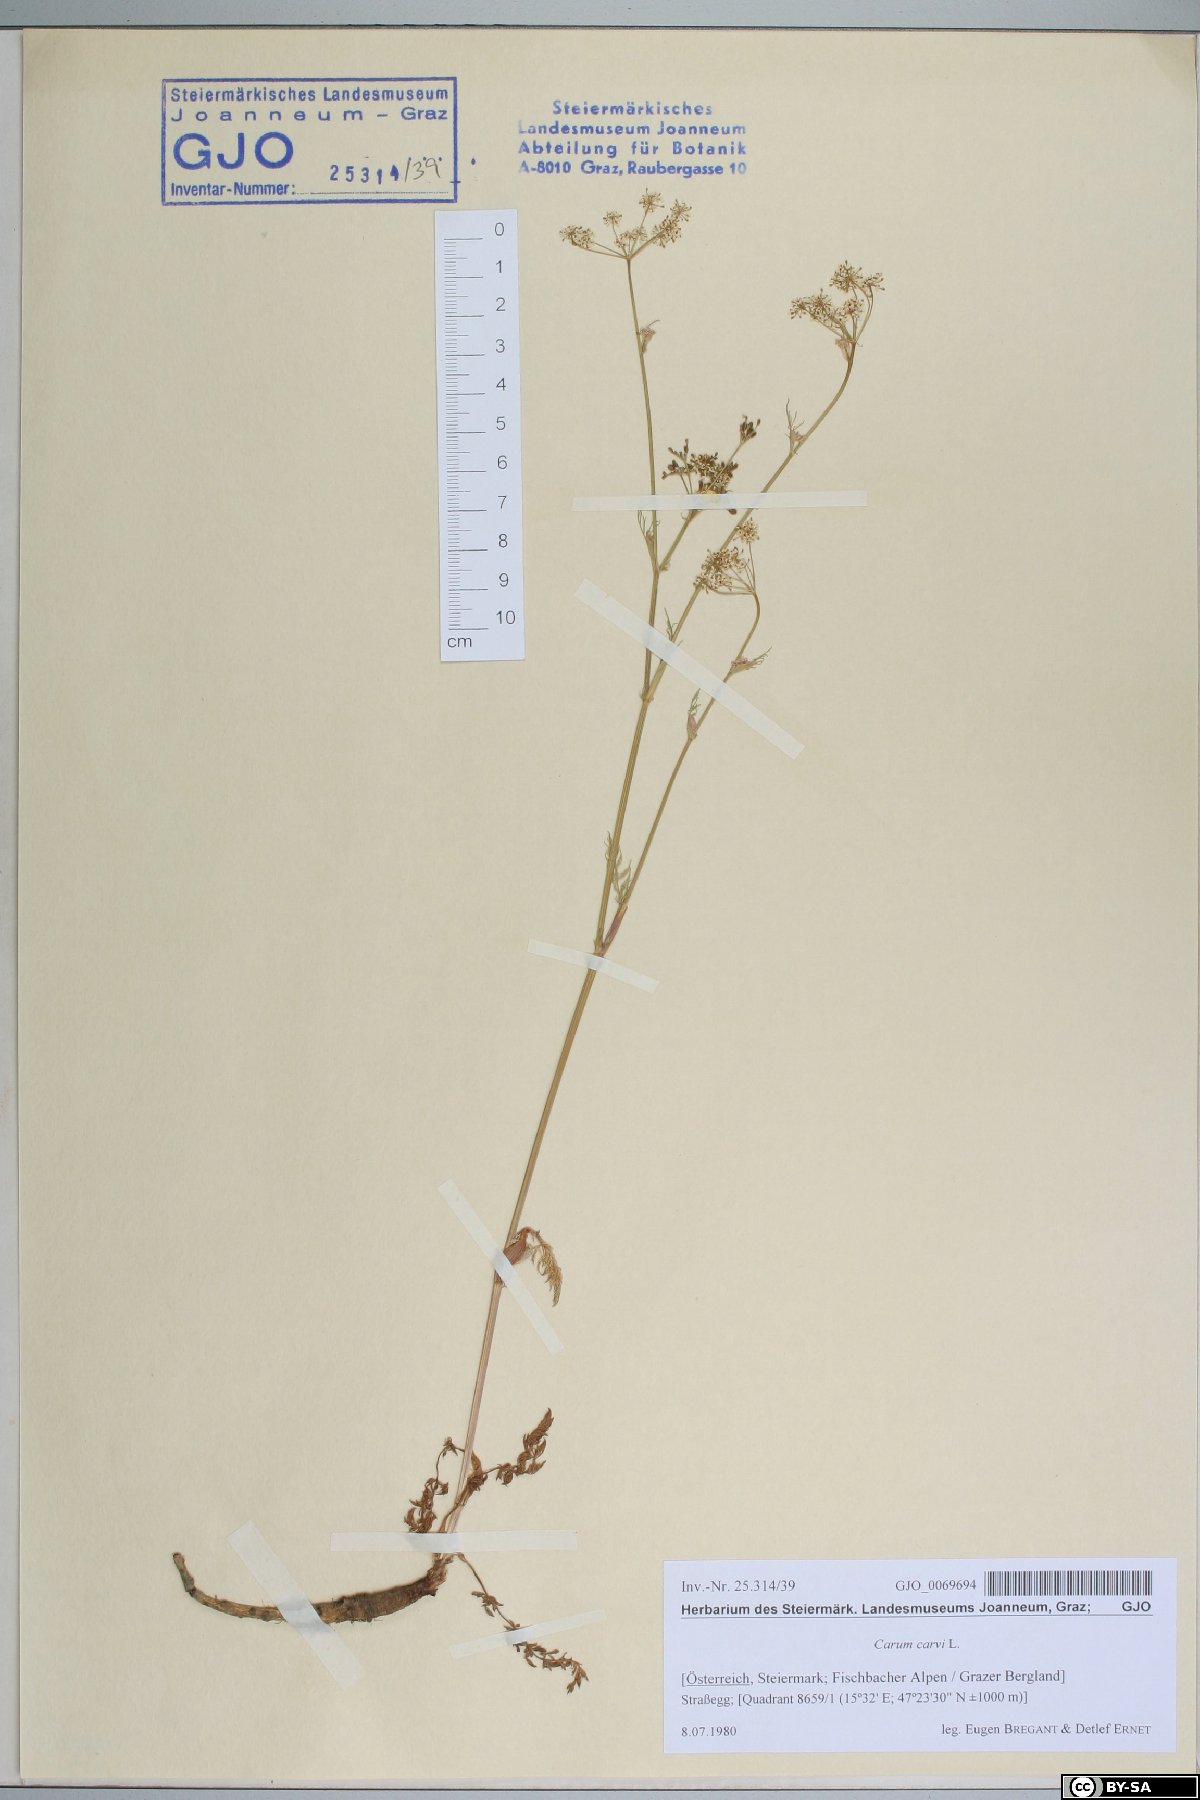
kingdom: Plantae
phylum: Tracheophyta
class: Magnoliopsida
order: Apiales
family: Apiaceae
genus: Carum
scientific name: Carum carvi
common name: Caraway
